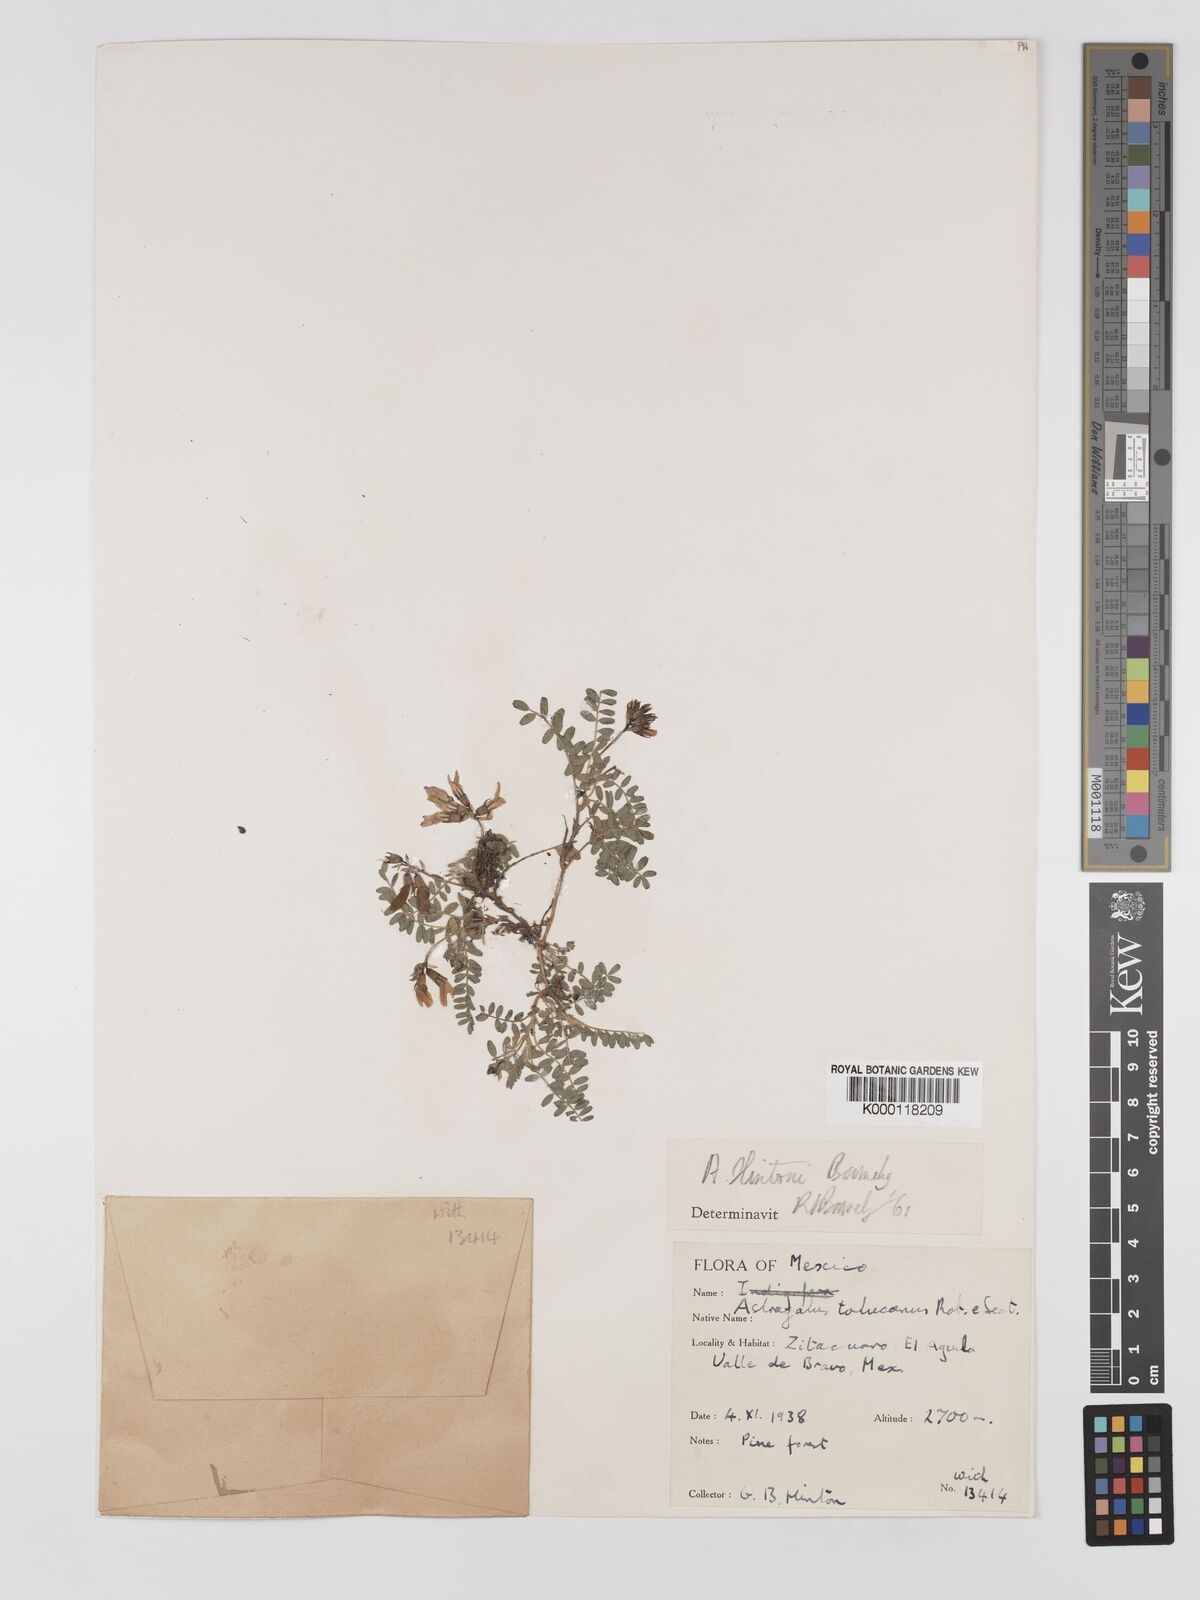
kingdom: Plantae
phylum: Tracheophyta
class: Magnoliopsida
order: Fabales
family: Fabaceae
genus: Astragalus
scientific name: Astragalus hintonii
